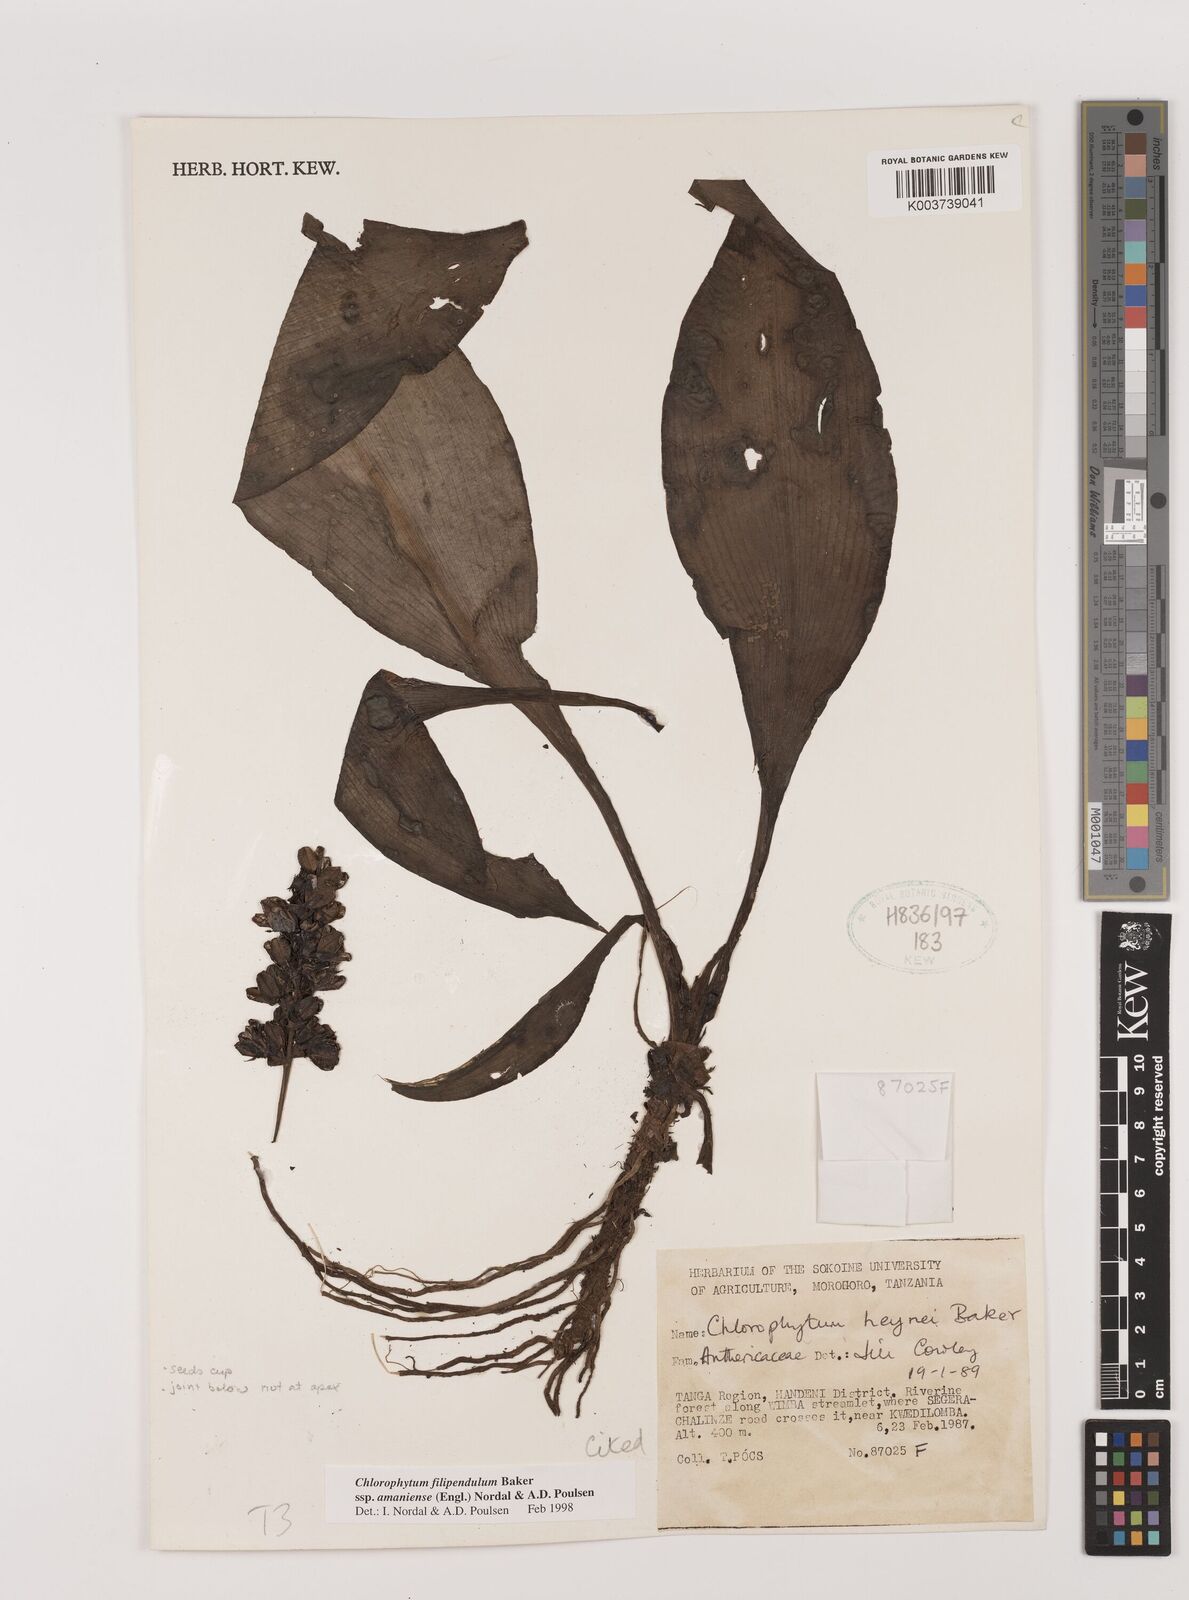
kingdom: Plantae
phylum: Tracheophyta
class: Liliopsida
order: Asparagales
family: Asparagaceae
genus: Chlorophytum
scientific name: Chlorophytum filipendulum
